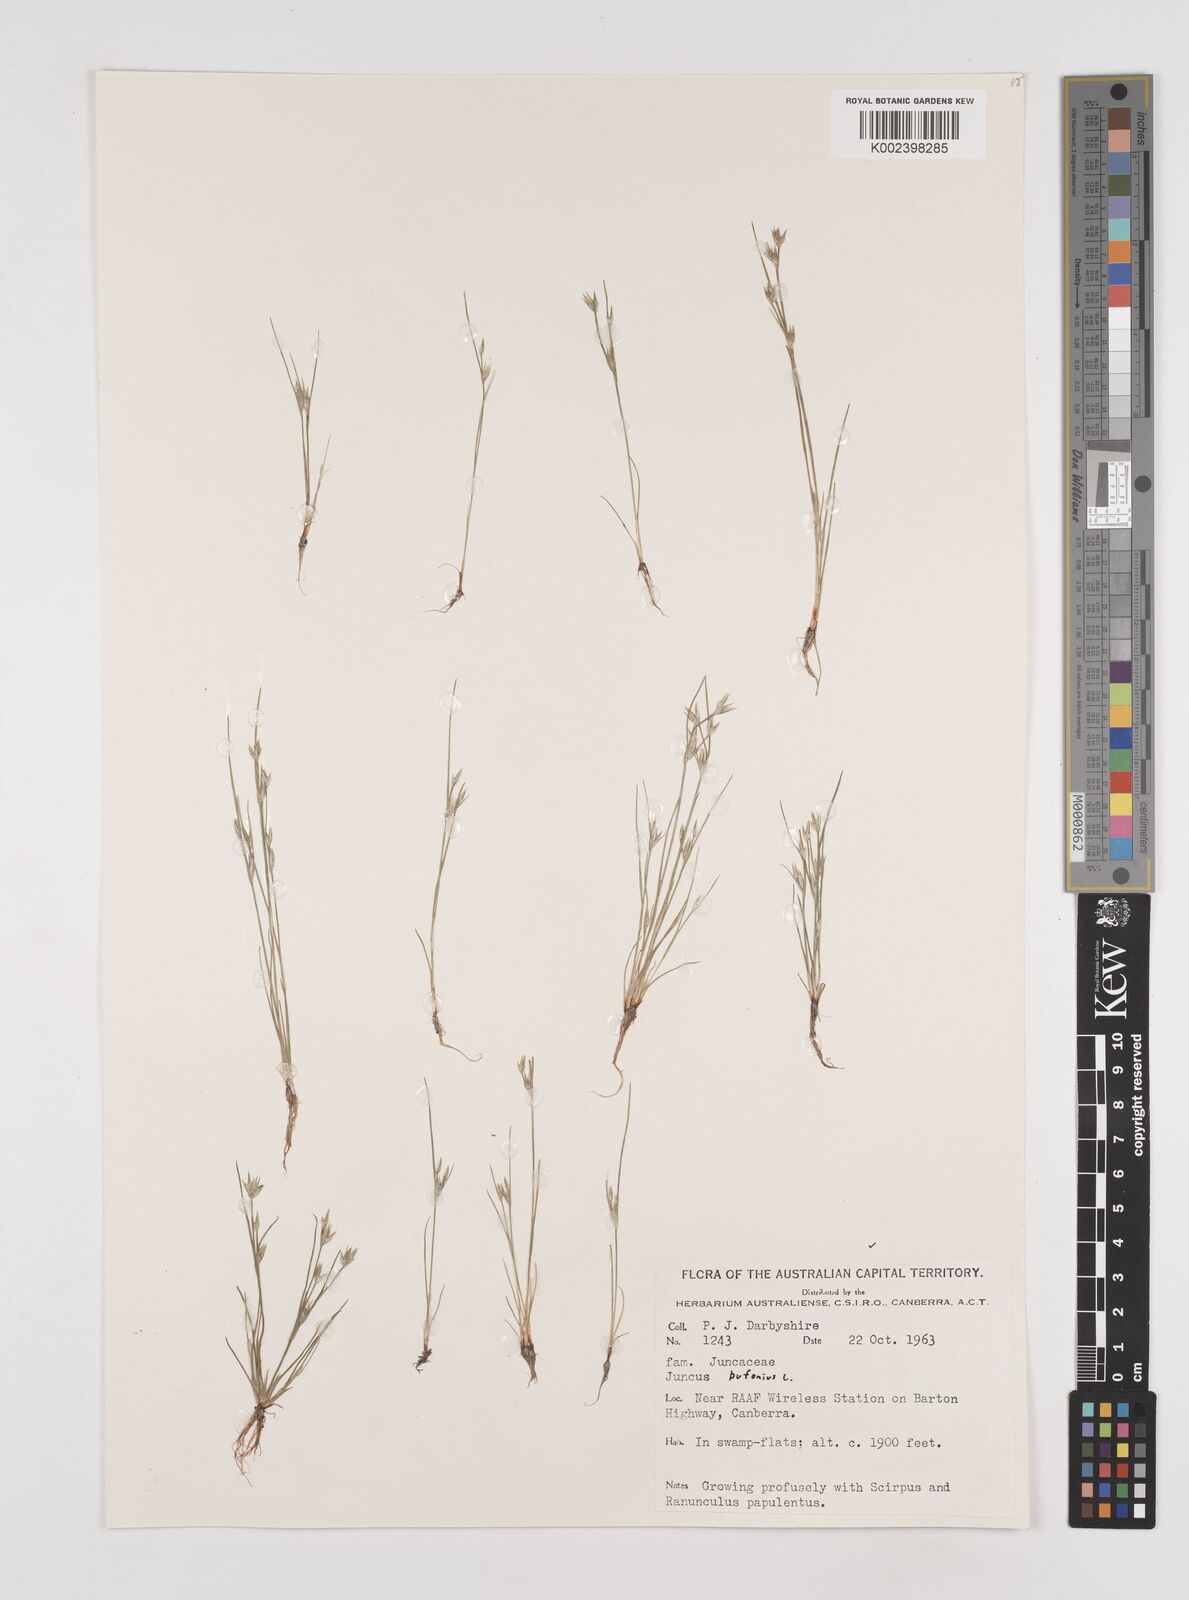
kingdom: Plantae
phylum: Tracheophyta
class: Liliopsida
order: Poales
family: Juncaceae
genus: Juncus
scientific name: Juncus ranarius
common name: Frog rush
